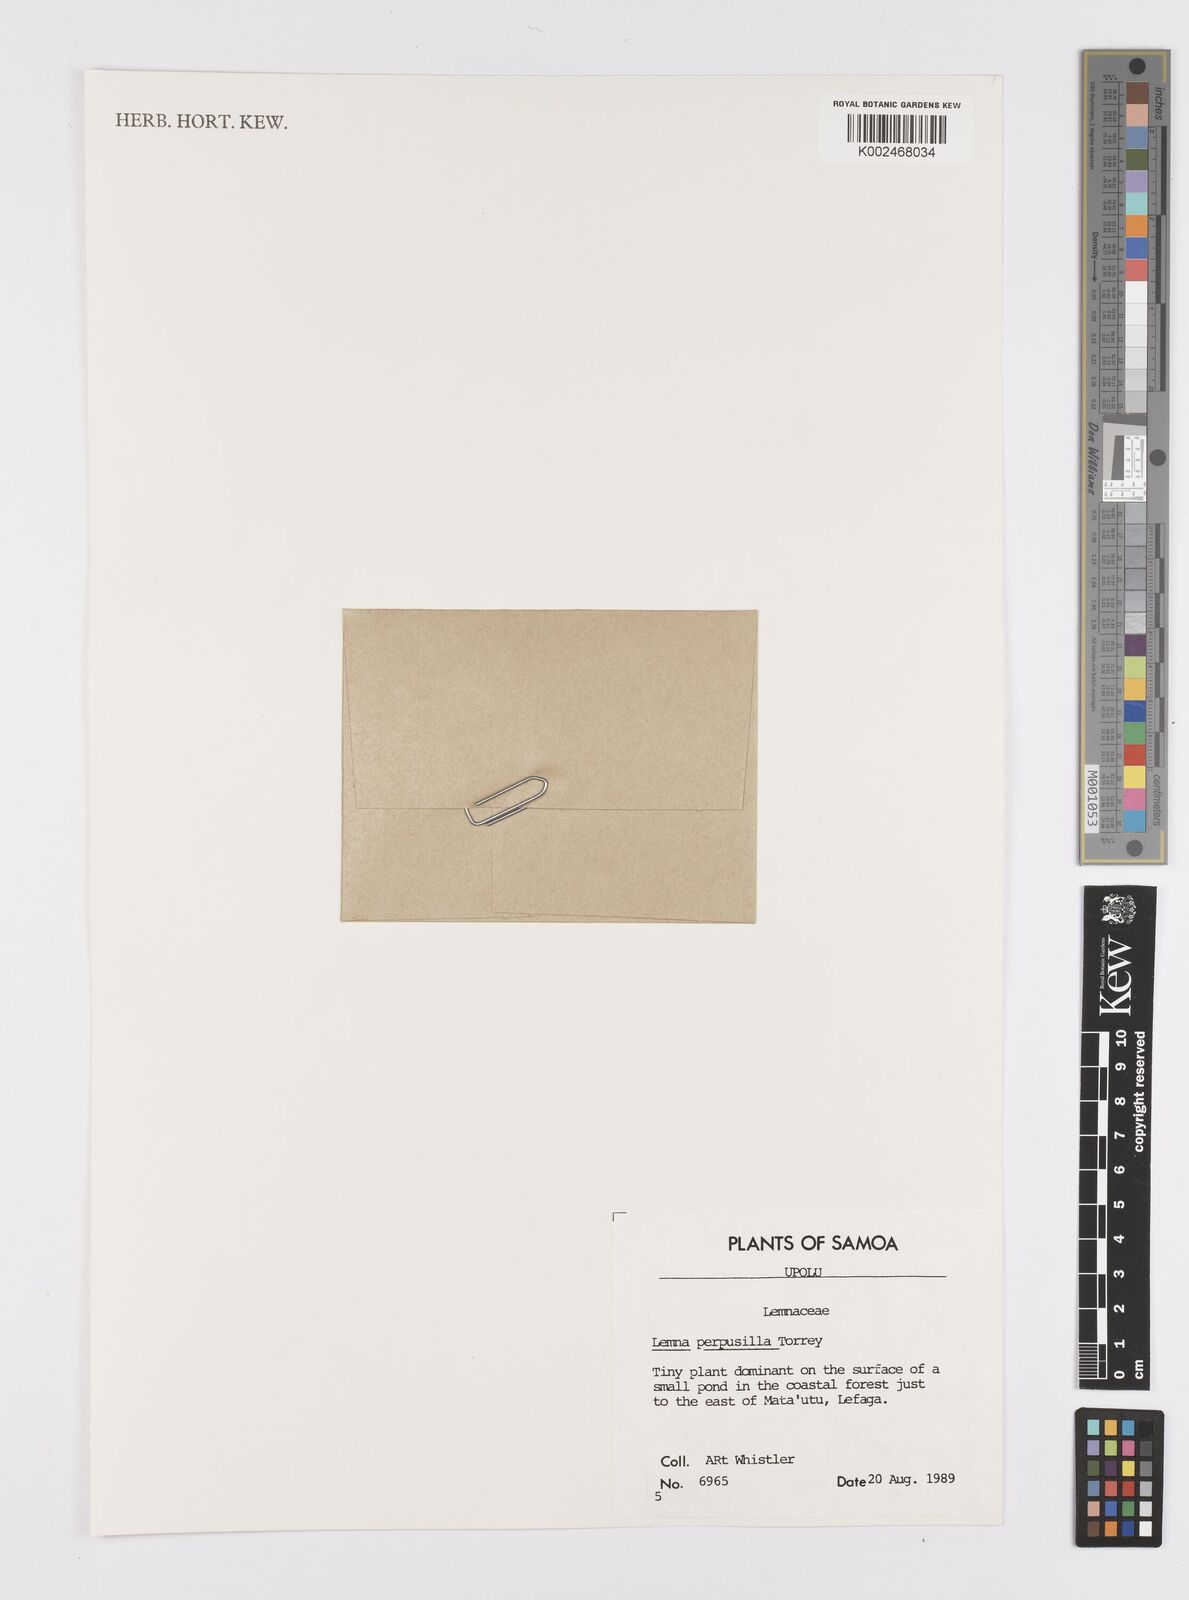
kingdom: Plantae
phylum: Tracheophyta
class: Liliopsida
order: Alismatales
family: Araceae
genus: Lemna
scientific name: Lemna perpusilla
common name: Duckweed
